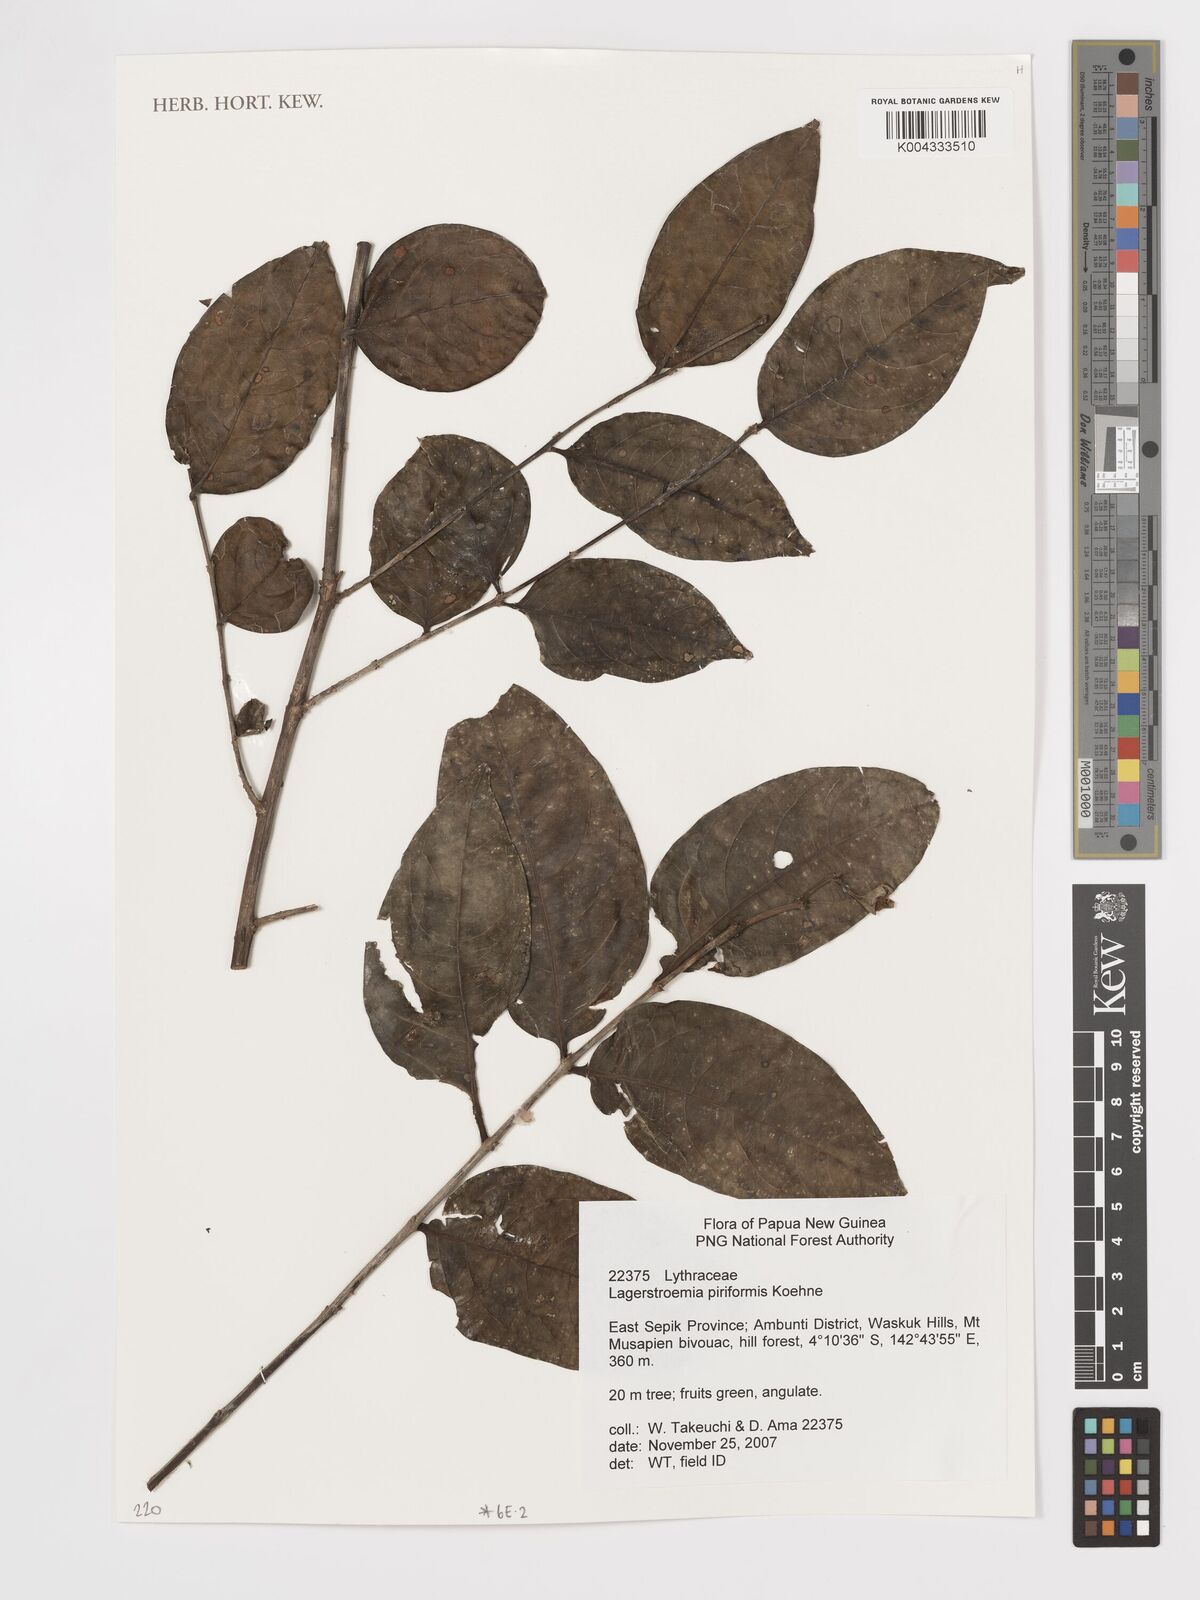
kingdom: Plantae
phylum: Tracheophyta
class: Magnoliopsida
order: Myrtales
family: Lythraceae
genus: Lagerstroemia
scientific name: Lagerstroemia celebica
